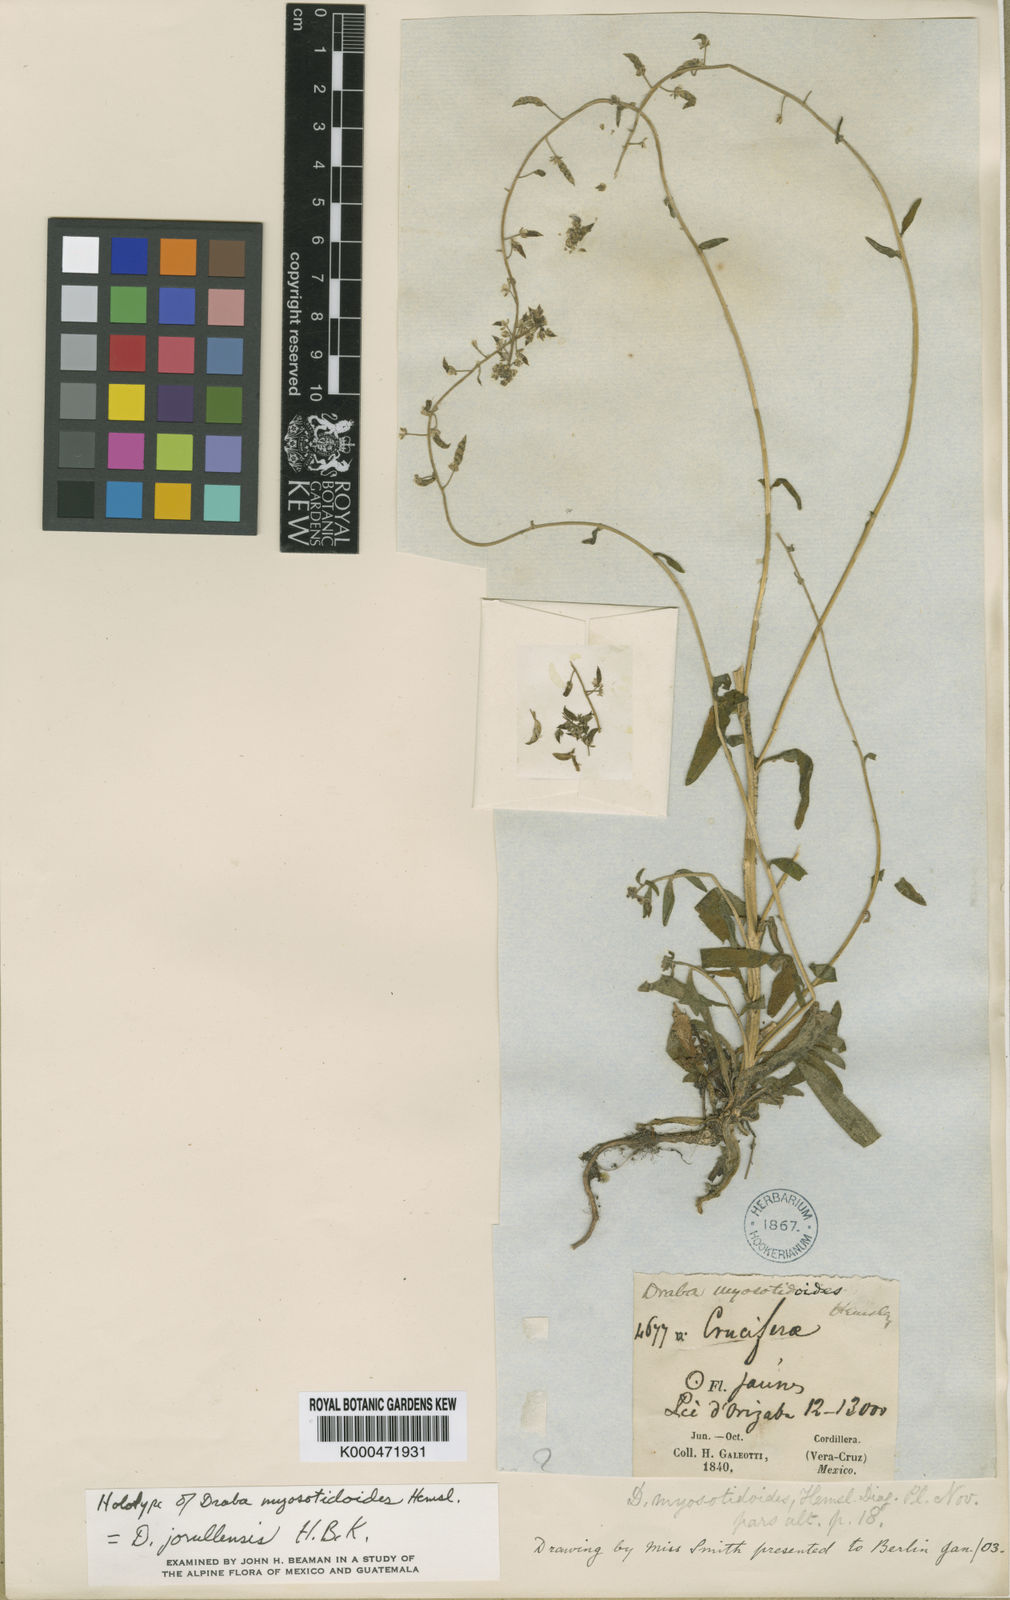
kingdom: Plantae
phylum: Tracheophyta
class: Magnoliopsida
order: Brassicales
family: Brassicaceae
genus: Draba
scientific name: Draba jorullensis
